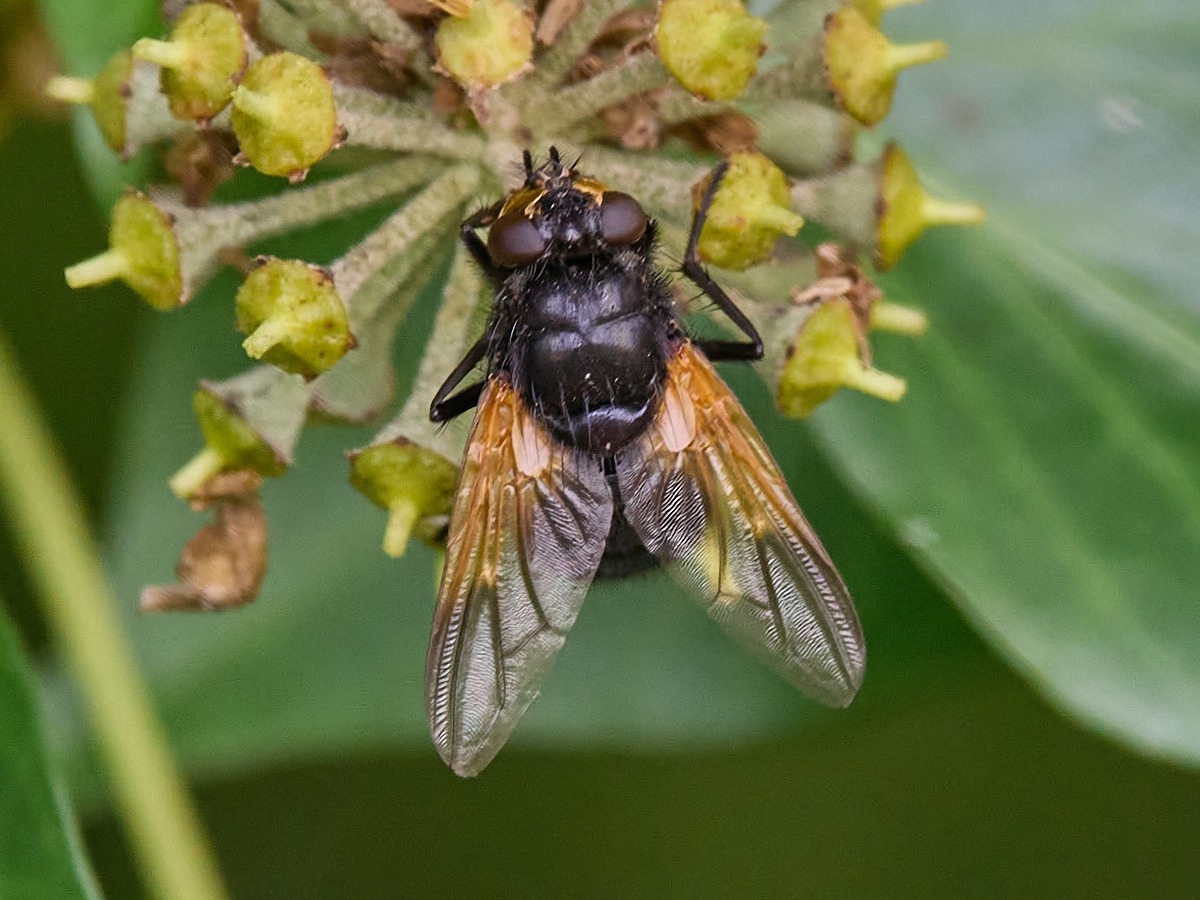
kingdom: Animalia
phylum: Arthropoda
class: Insecta
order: Diptera
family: Muscidae
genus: Mesembrina
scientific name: Mesembrina meridiana
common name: Gulvinget flue
